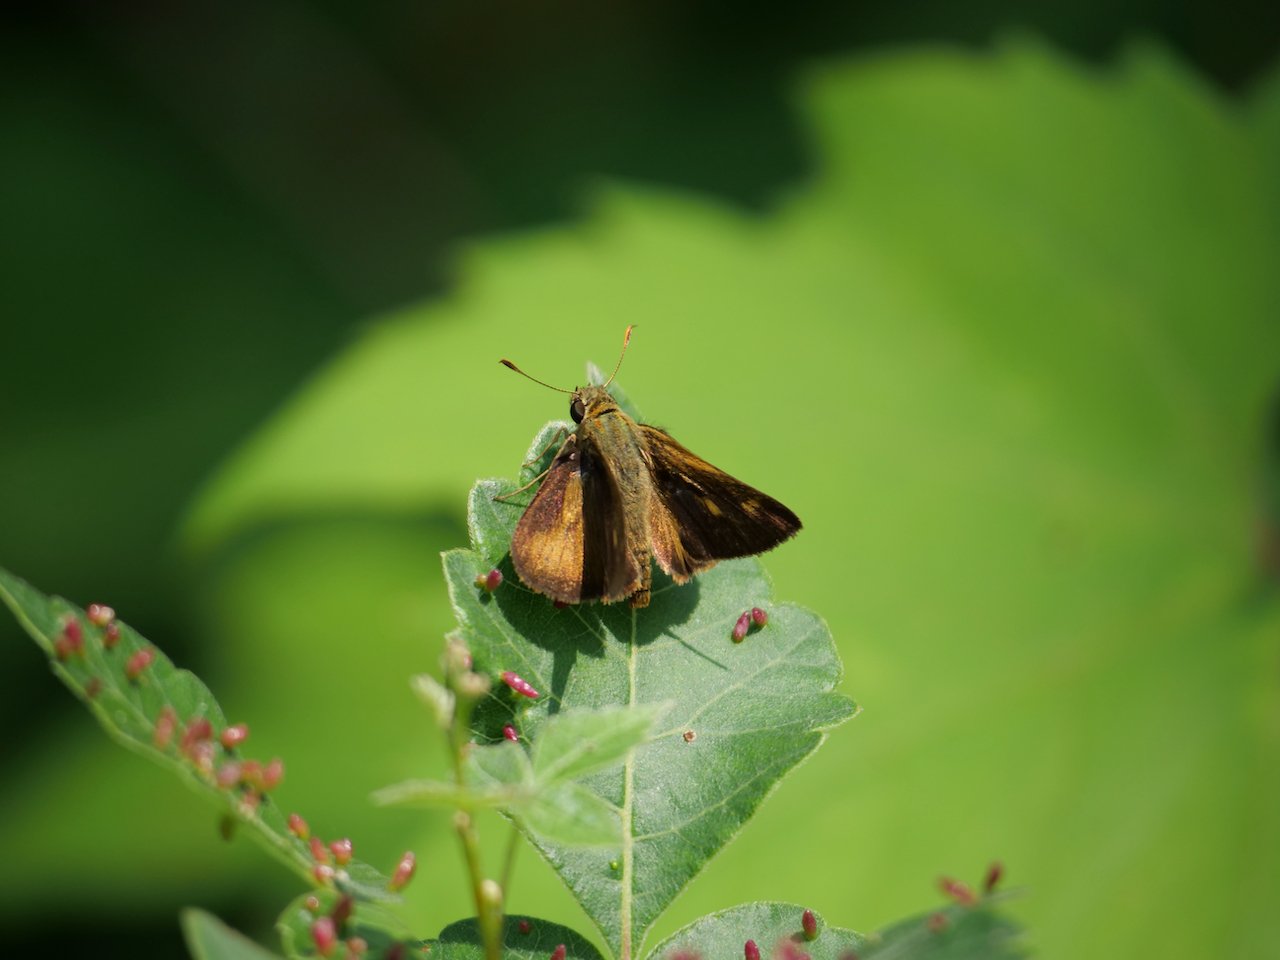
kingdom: Animalia
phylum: Arthropoda
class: Insecta
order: Lepidoptera
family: Hesperiidae
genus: Polites
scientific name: Polites egeremet
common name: Northern Broken-Dash
